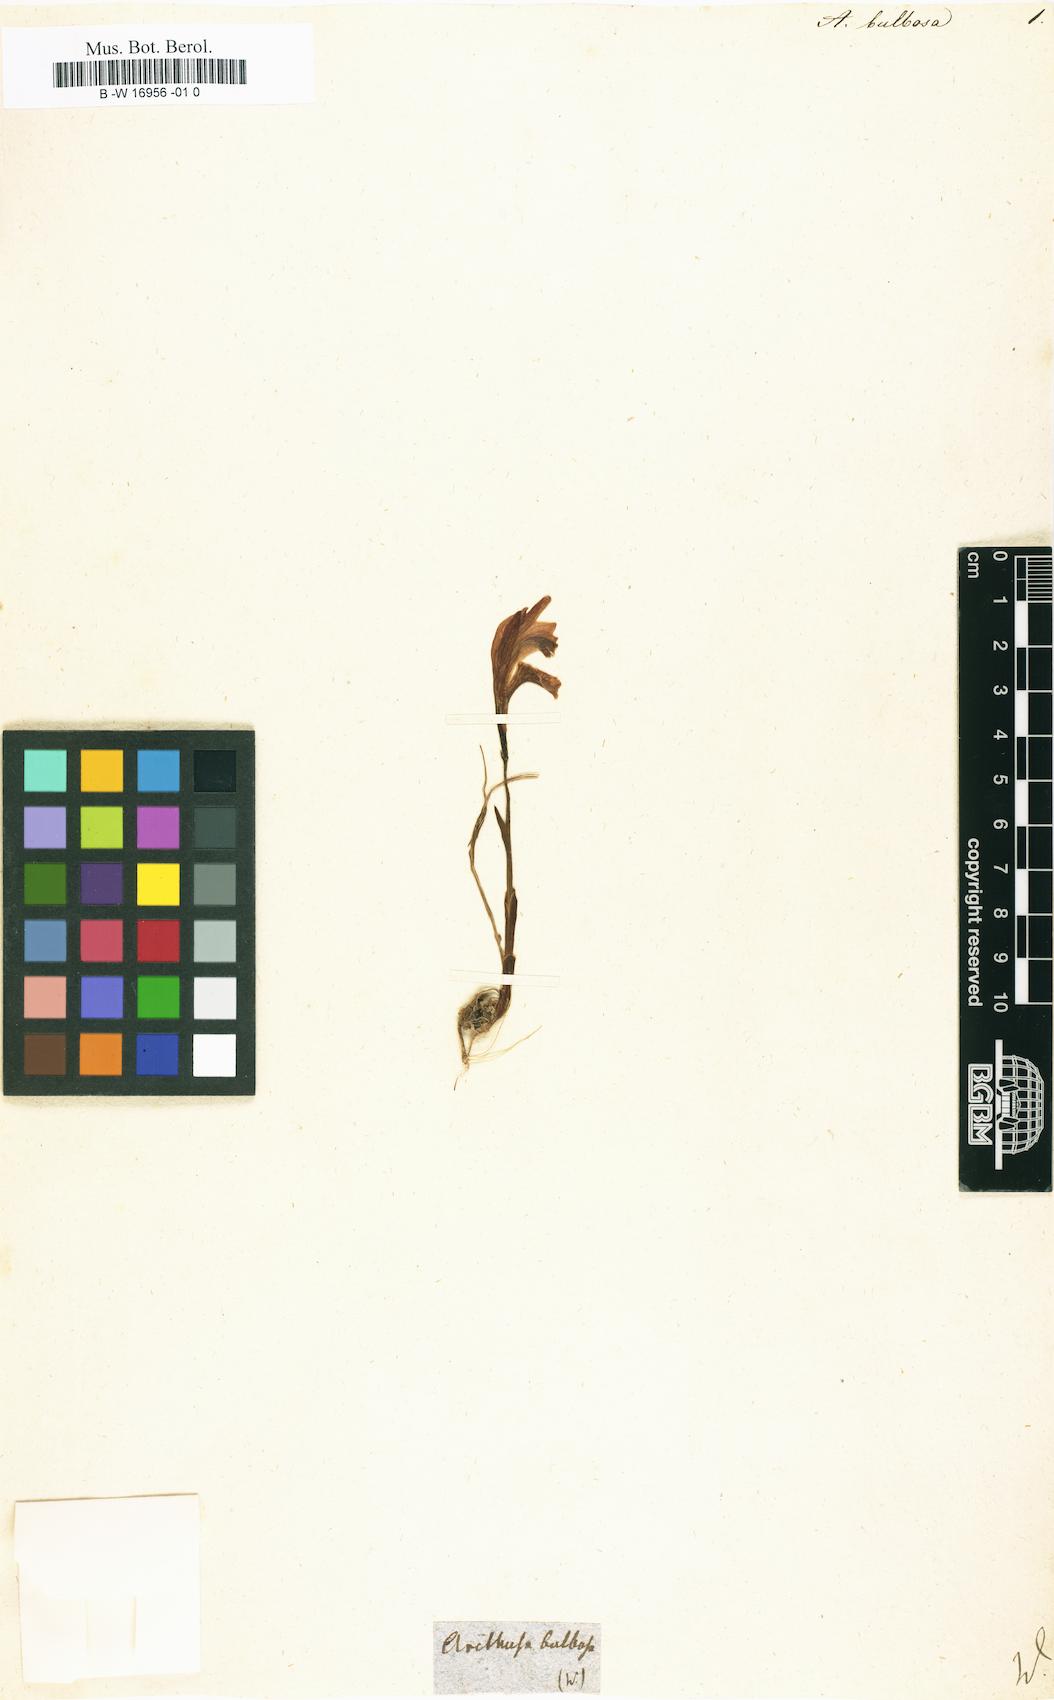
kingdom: Plantae
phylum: Tracheophyta
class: Liliopsida
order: Asparagales
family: Orchidaceae
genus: Arethusa
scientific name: Arethusa bulbosa
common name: Arethusa
